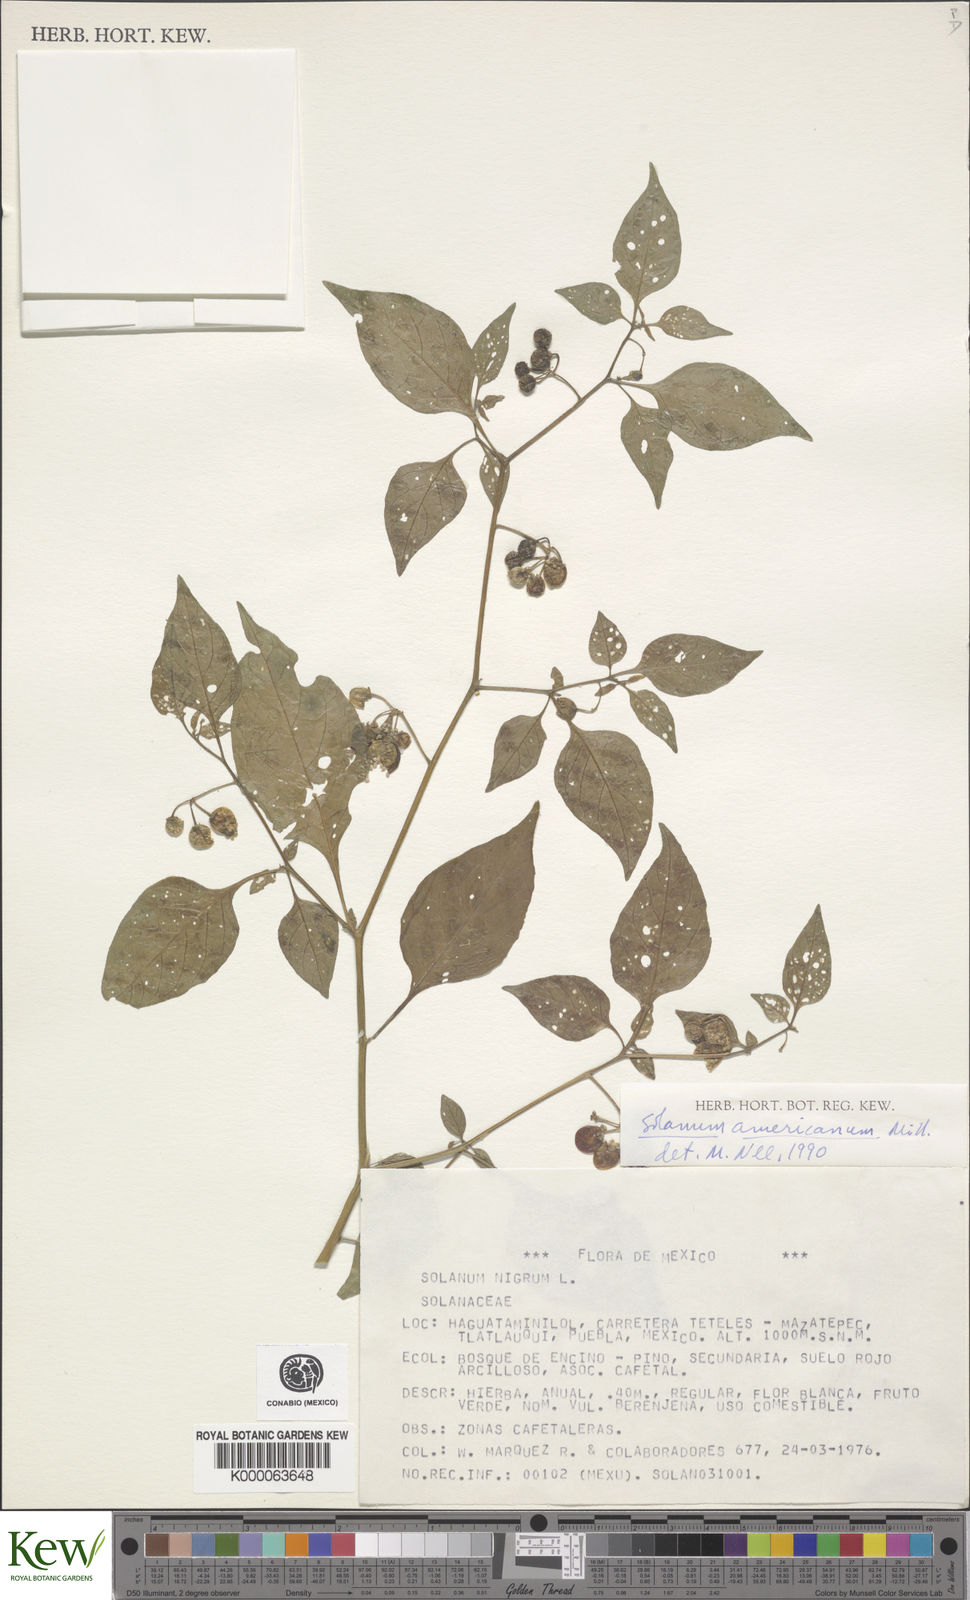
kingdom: Plantae
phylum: Tracheophyta
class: Magnoliopsida
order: Solanales
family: Solanaceae
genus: Solanum
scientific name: Solanum americanum
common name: American black nightshade
